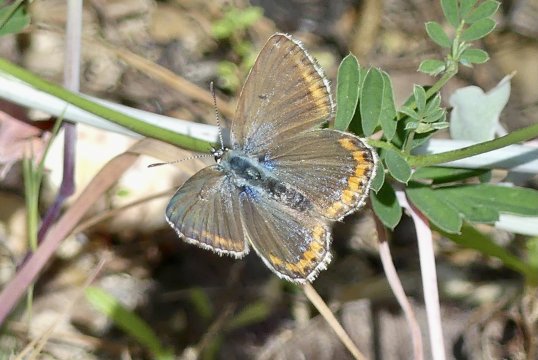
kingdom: Animalia
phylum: Arthropoda
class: Insecta
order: Lepidoptera
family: Lycaenidae
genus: Polyommatus
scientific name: Polyommatus icarus
